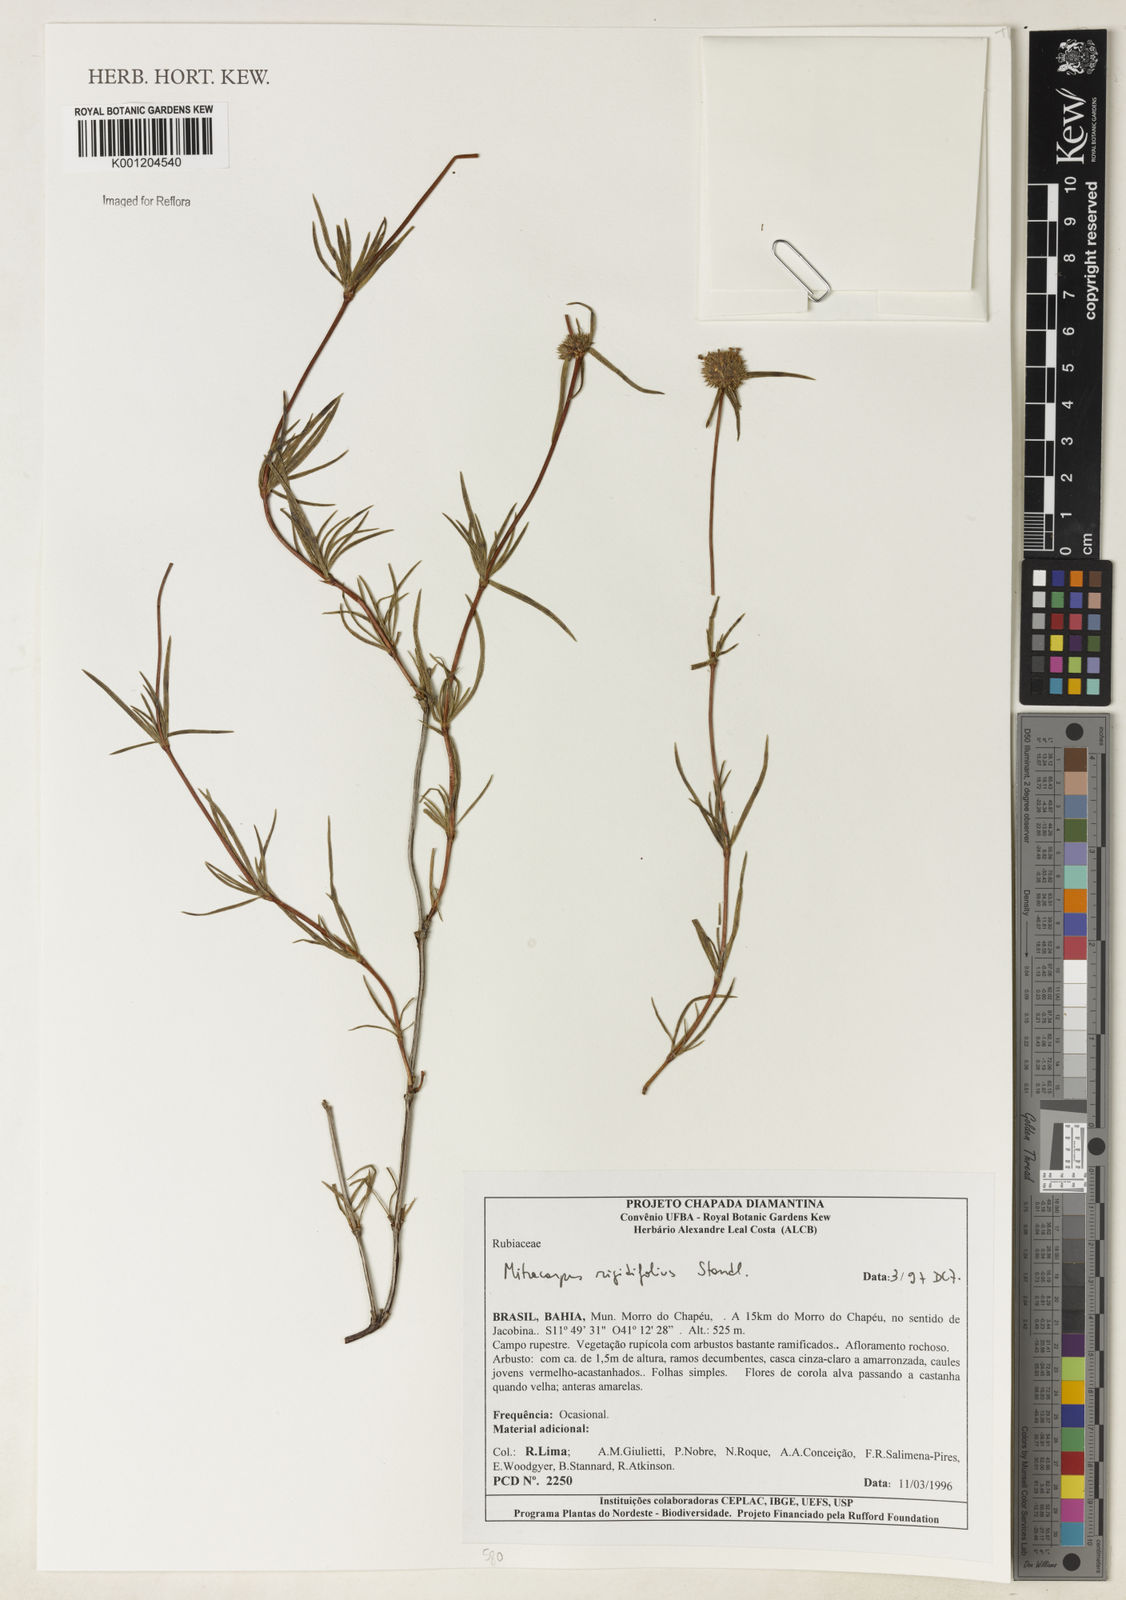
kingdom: Plantae
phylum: Tracheophyta
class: Magnoliopsida
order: Gentianales
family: Rubiaceae
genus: Mitracarpus
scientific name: Mitracarpus rigidifolius
